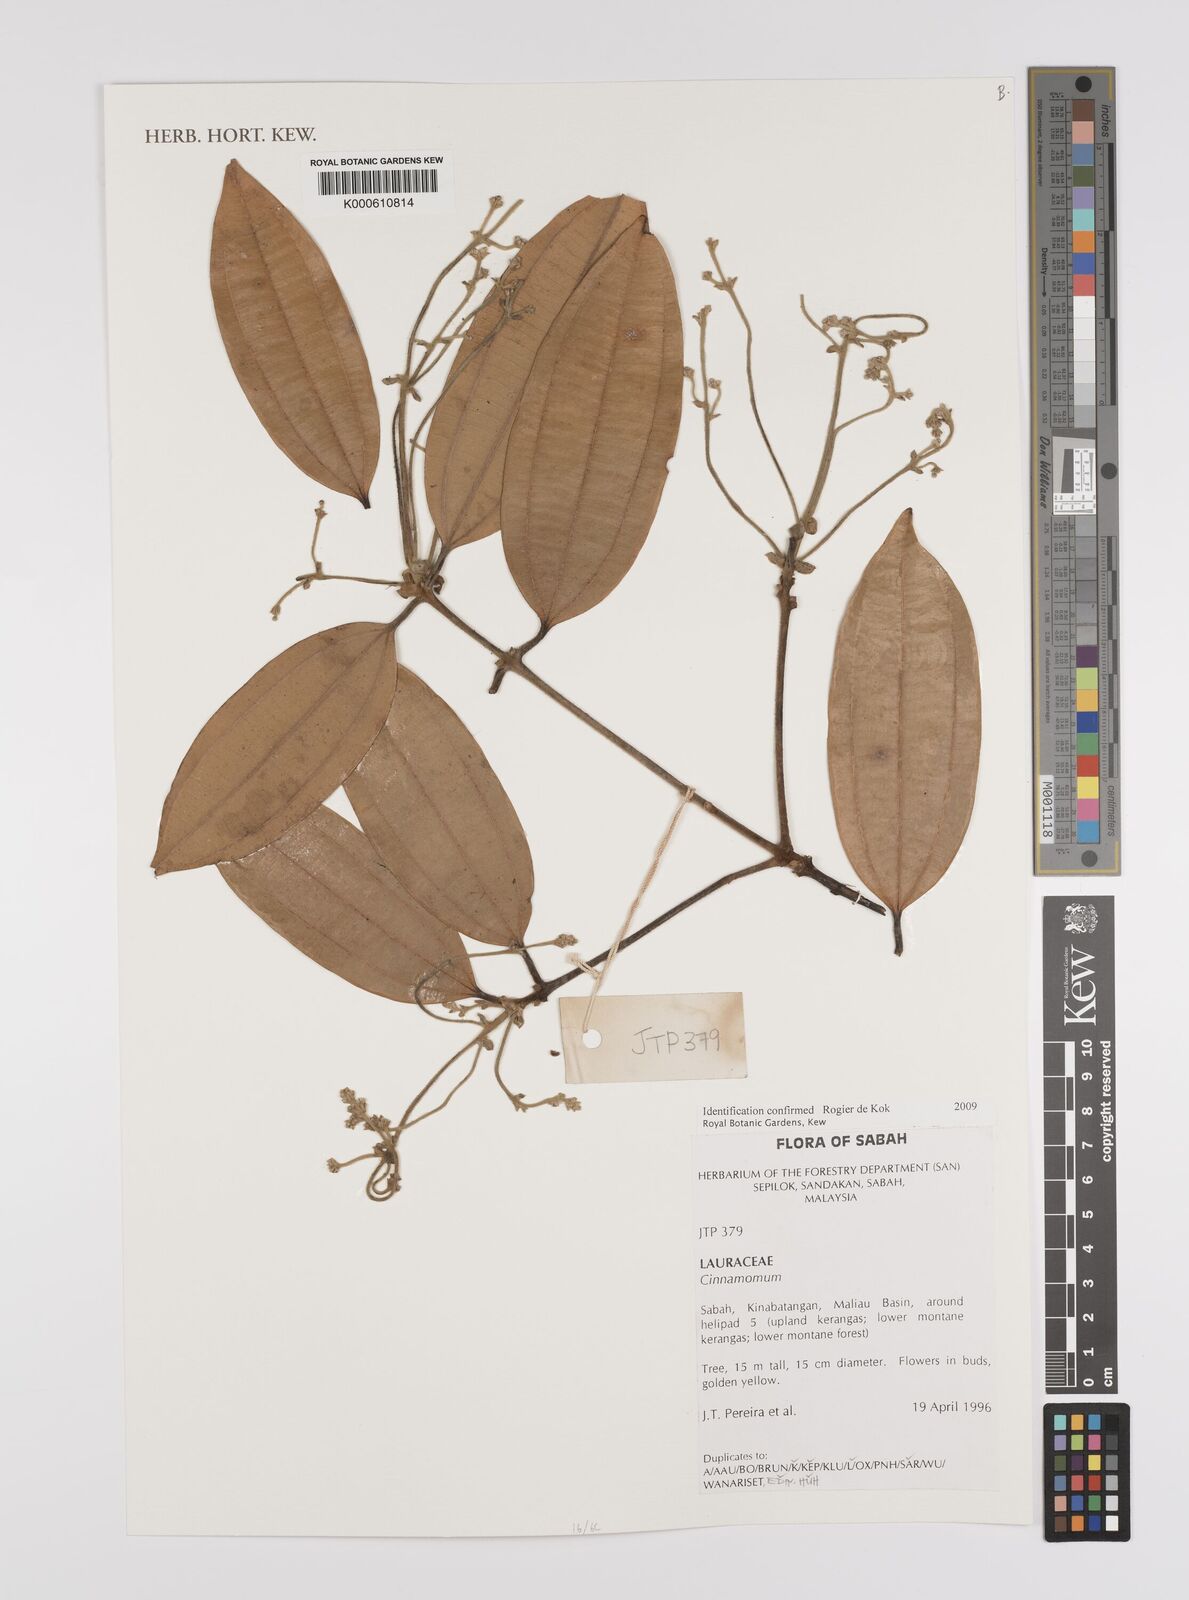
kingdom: Plantae
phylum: Tracheophyta
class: Magnoliopsida
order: Laurales
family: Lauraceae
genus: Cinnamomum
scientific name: Cinnamomum
